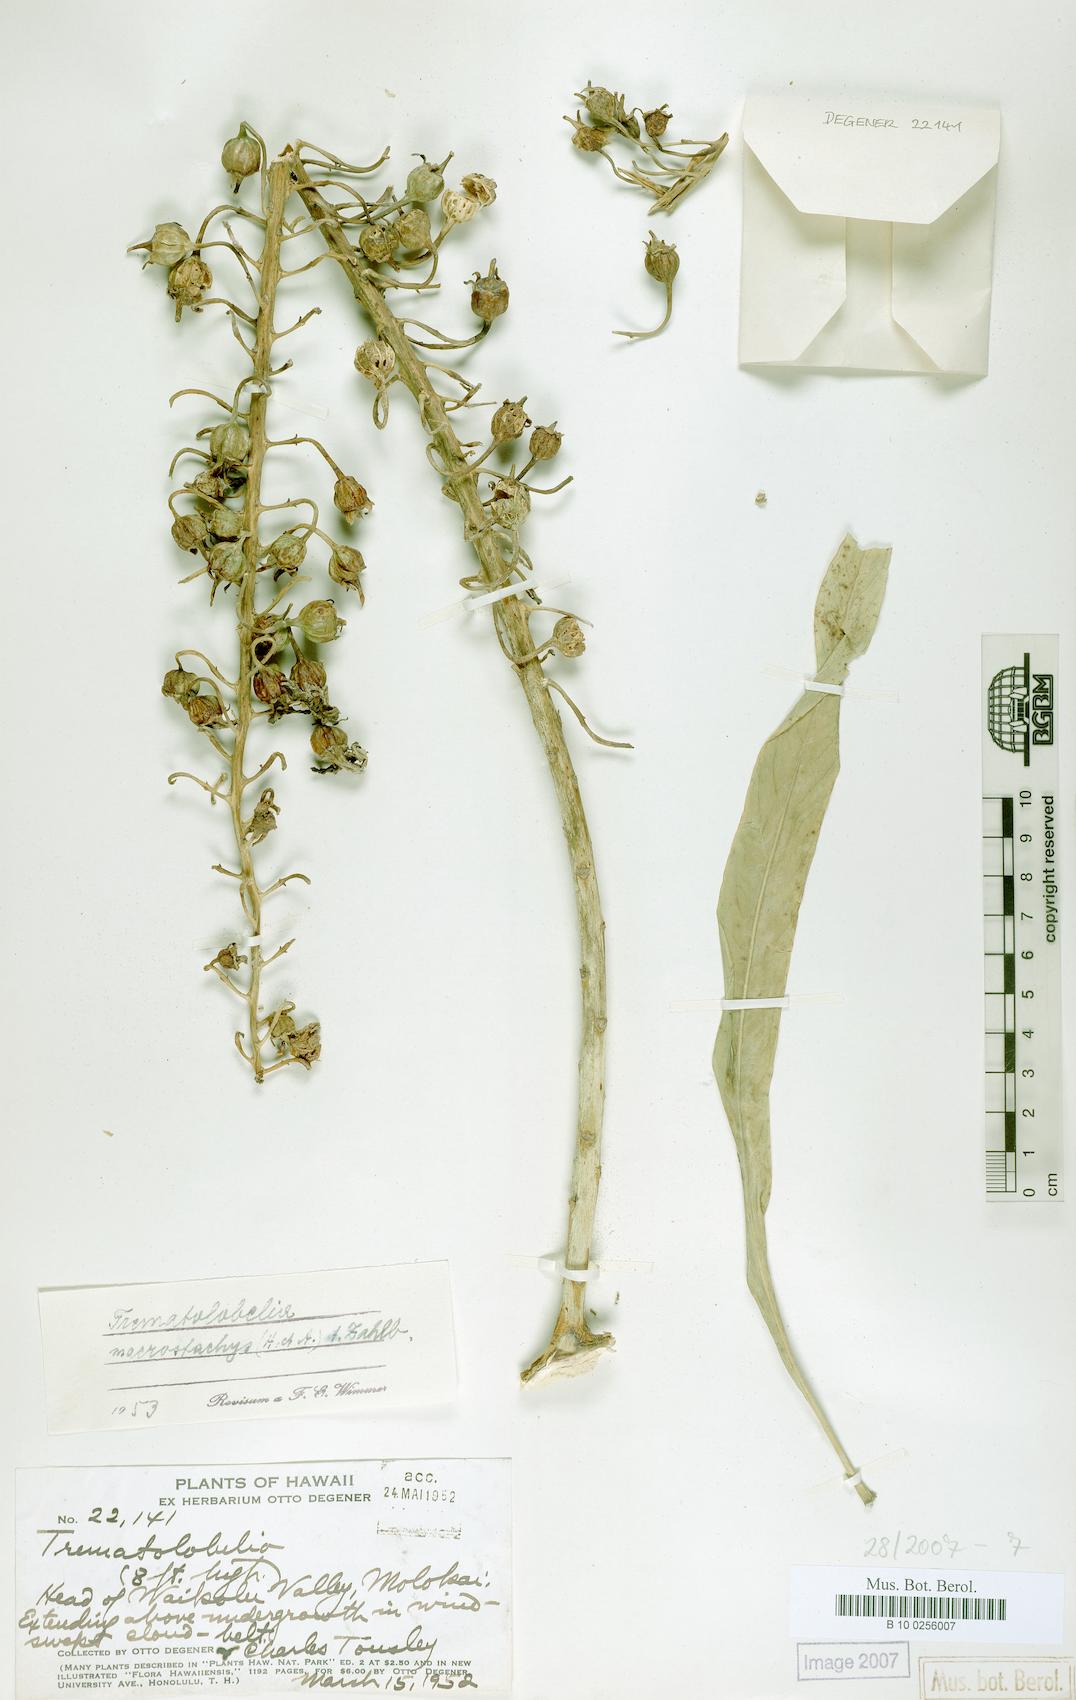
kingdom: Plantae
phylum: Tracheophyta
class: Magnoliopsida
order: Asterales
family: Campanulaceae
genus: Trematolobelia
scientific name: Trematolobelia macrostachys
